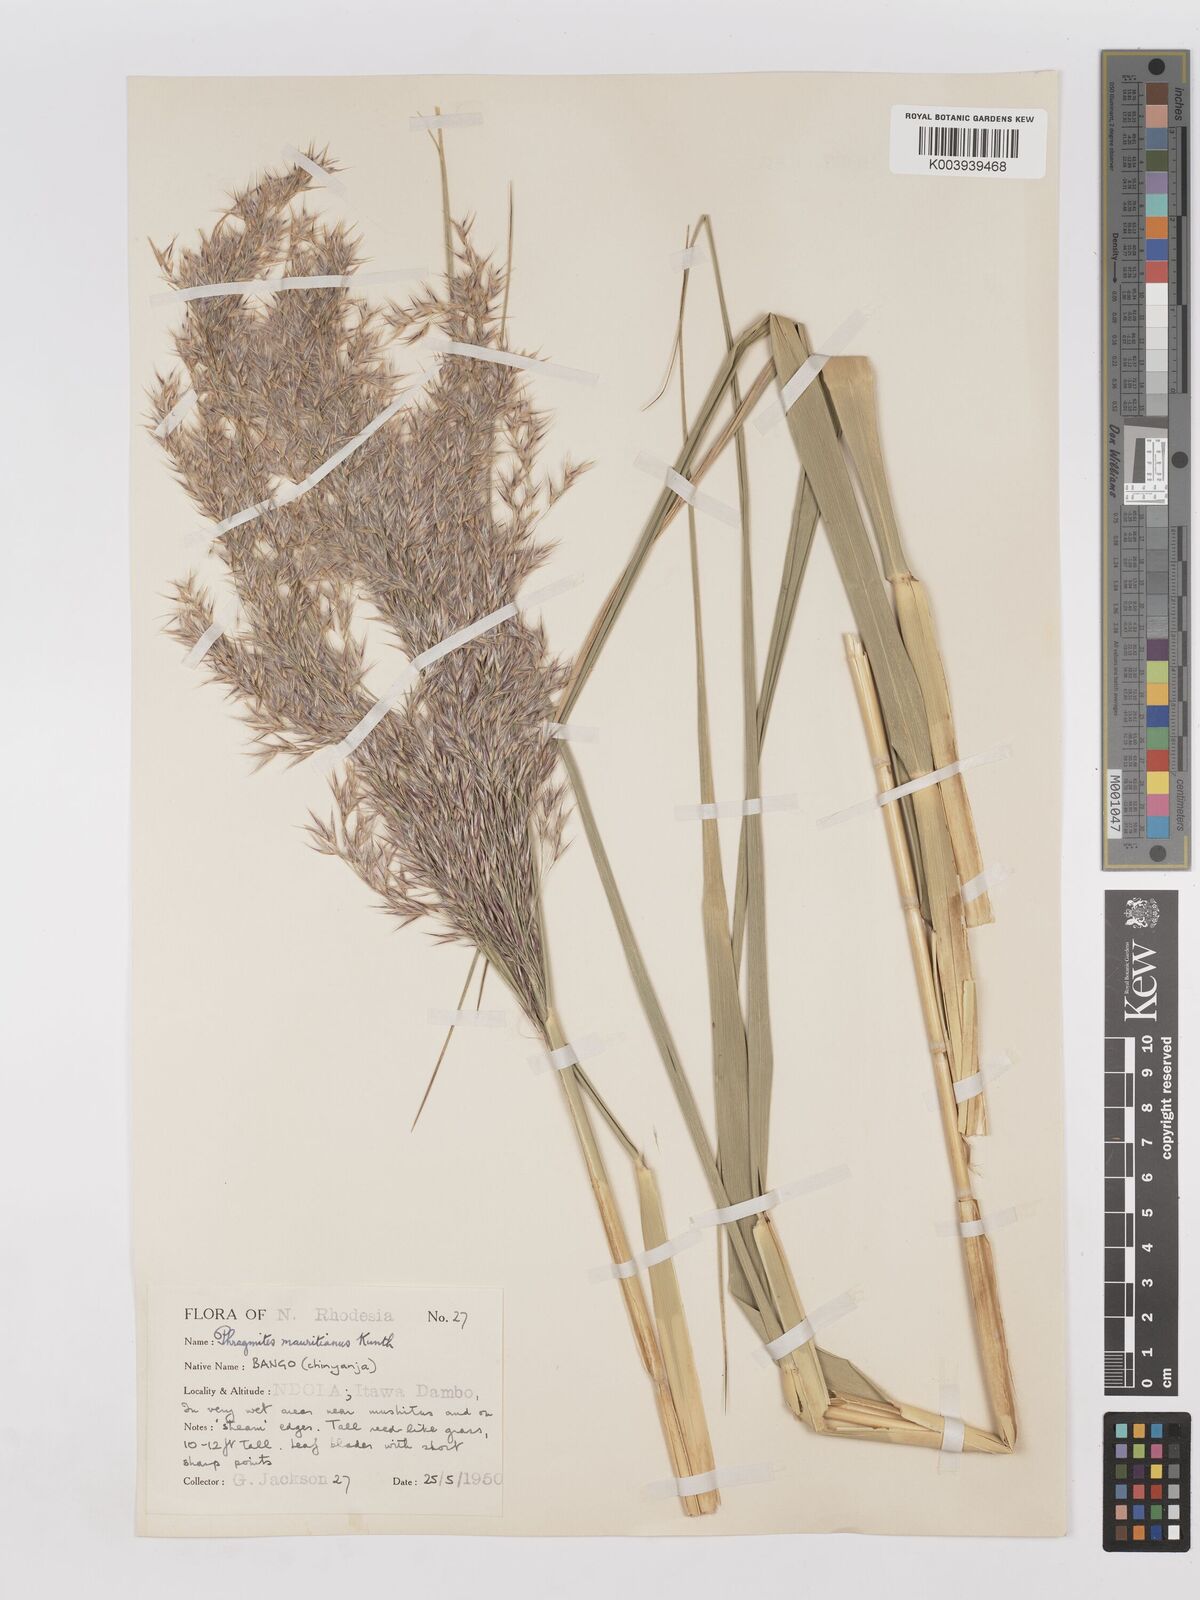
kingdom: Plantae
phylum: Tracheophyta
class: Liliopsida
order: Poales
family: Poaceae
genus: Phragmites
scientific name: Phragmites mauritianus
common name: Reed grass
